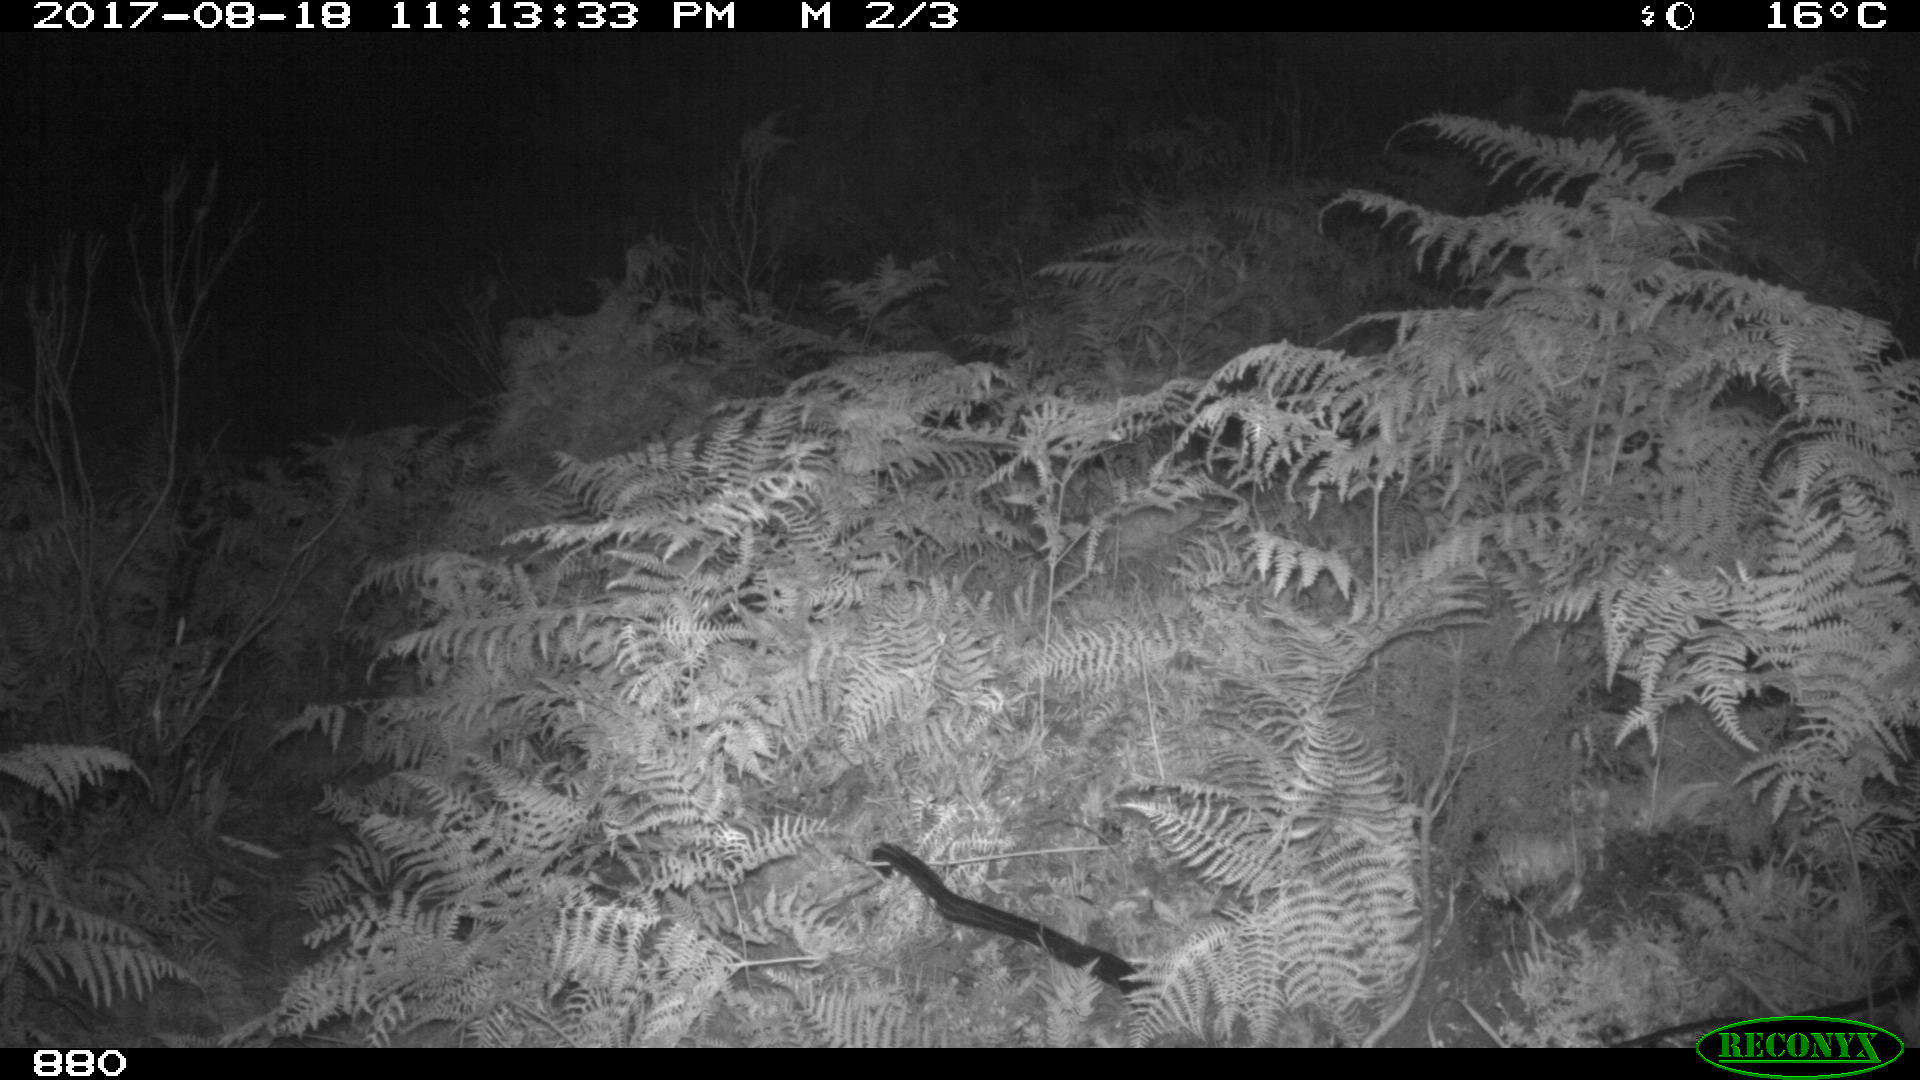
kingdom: Animalia
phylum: Chordata
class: Mammalia
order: Perissodactyla
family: Equidae
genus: Equus
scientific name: Equus caballus
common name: Horse
